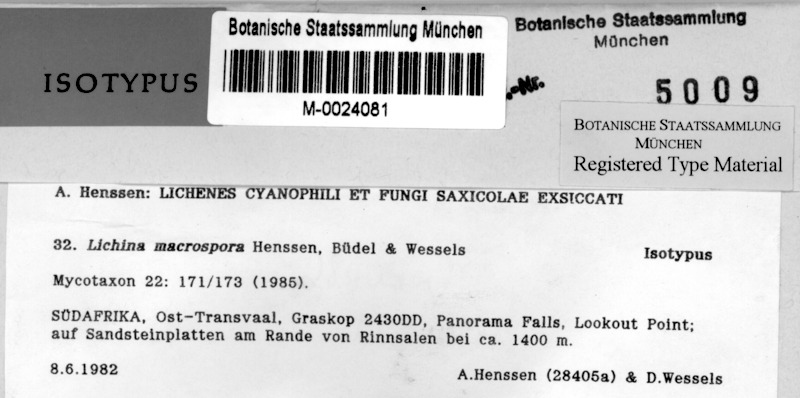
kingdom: Fungi
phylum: Ascomycota
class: Lichinomycetes
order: Lichinales
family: Lichinaceae
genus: Lichina
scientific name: Lichina
